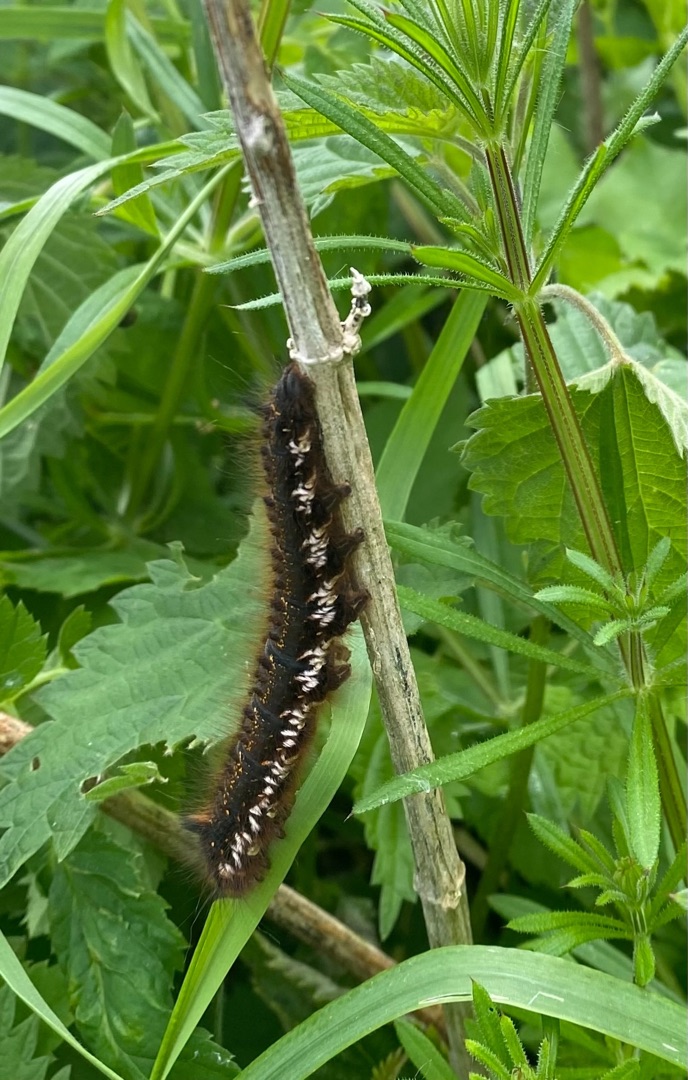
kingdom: Animalia
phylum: Arthropoda
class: Insecta
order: Lepidoptera
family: Lasiocampidae
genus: Euthrix
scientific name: Euthrix potatoria
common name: Græsspinder
